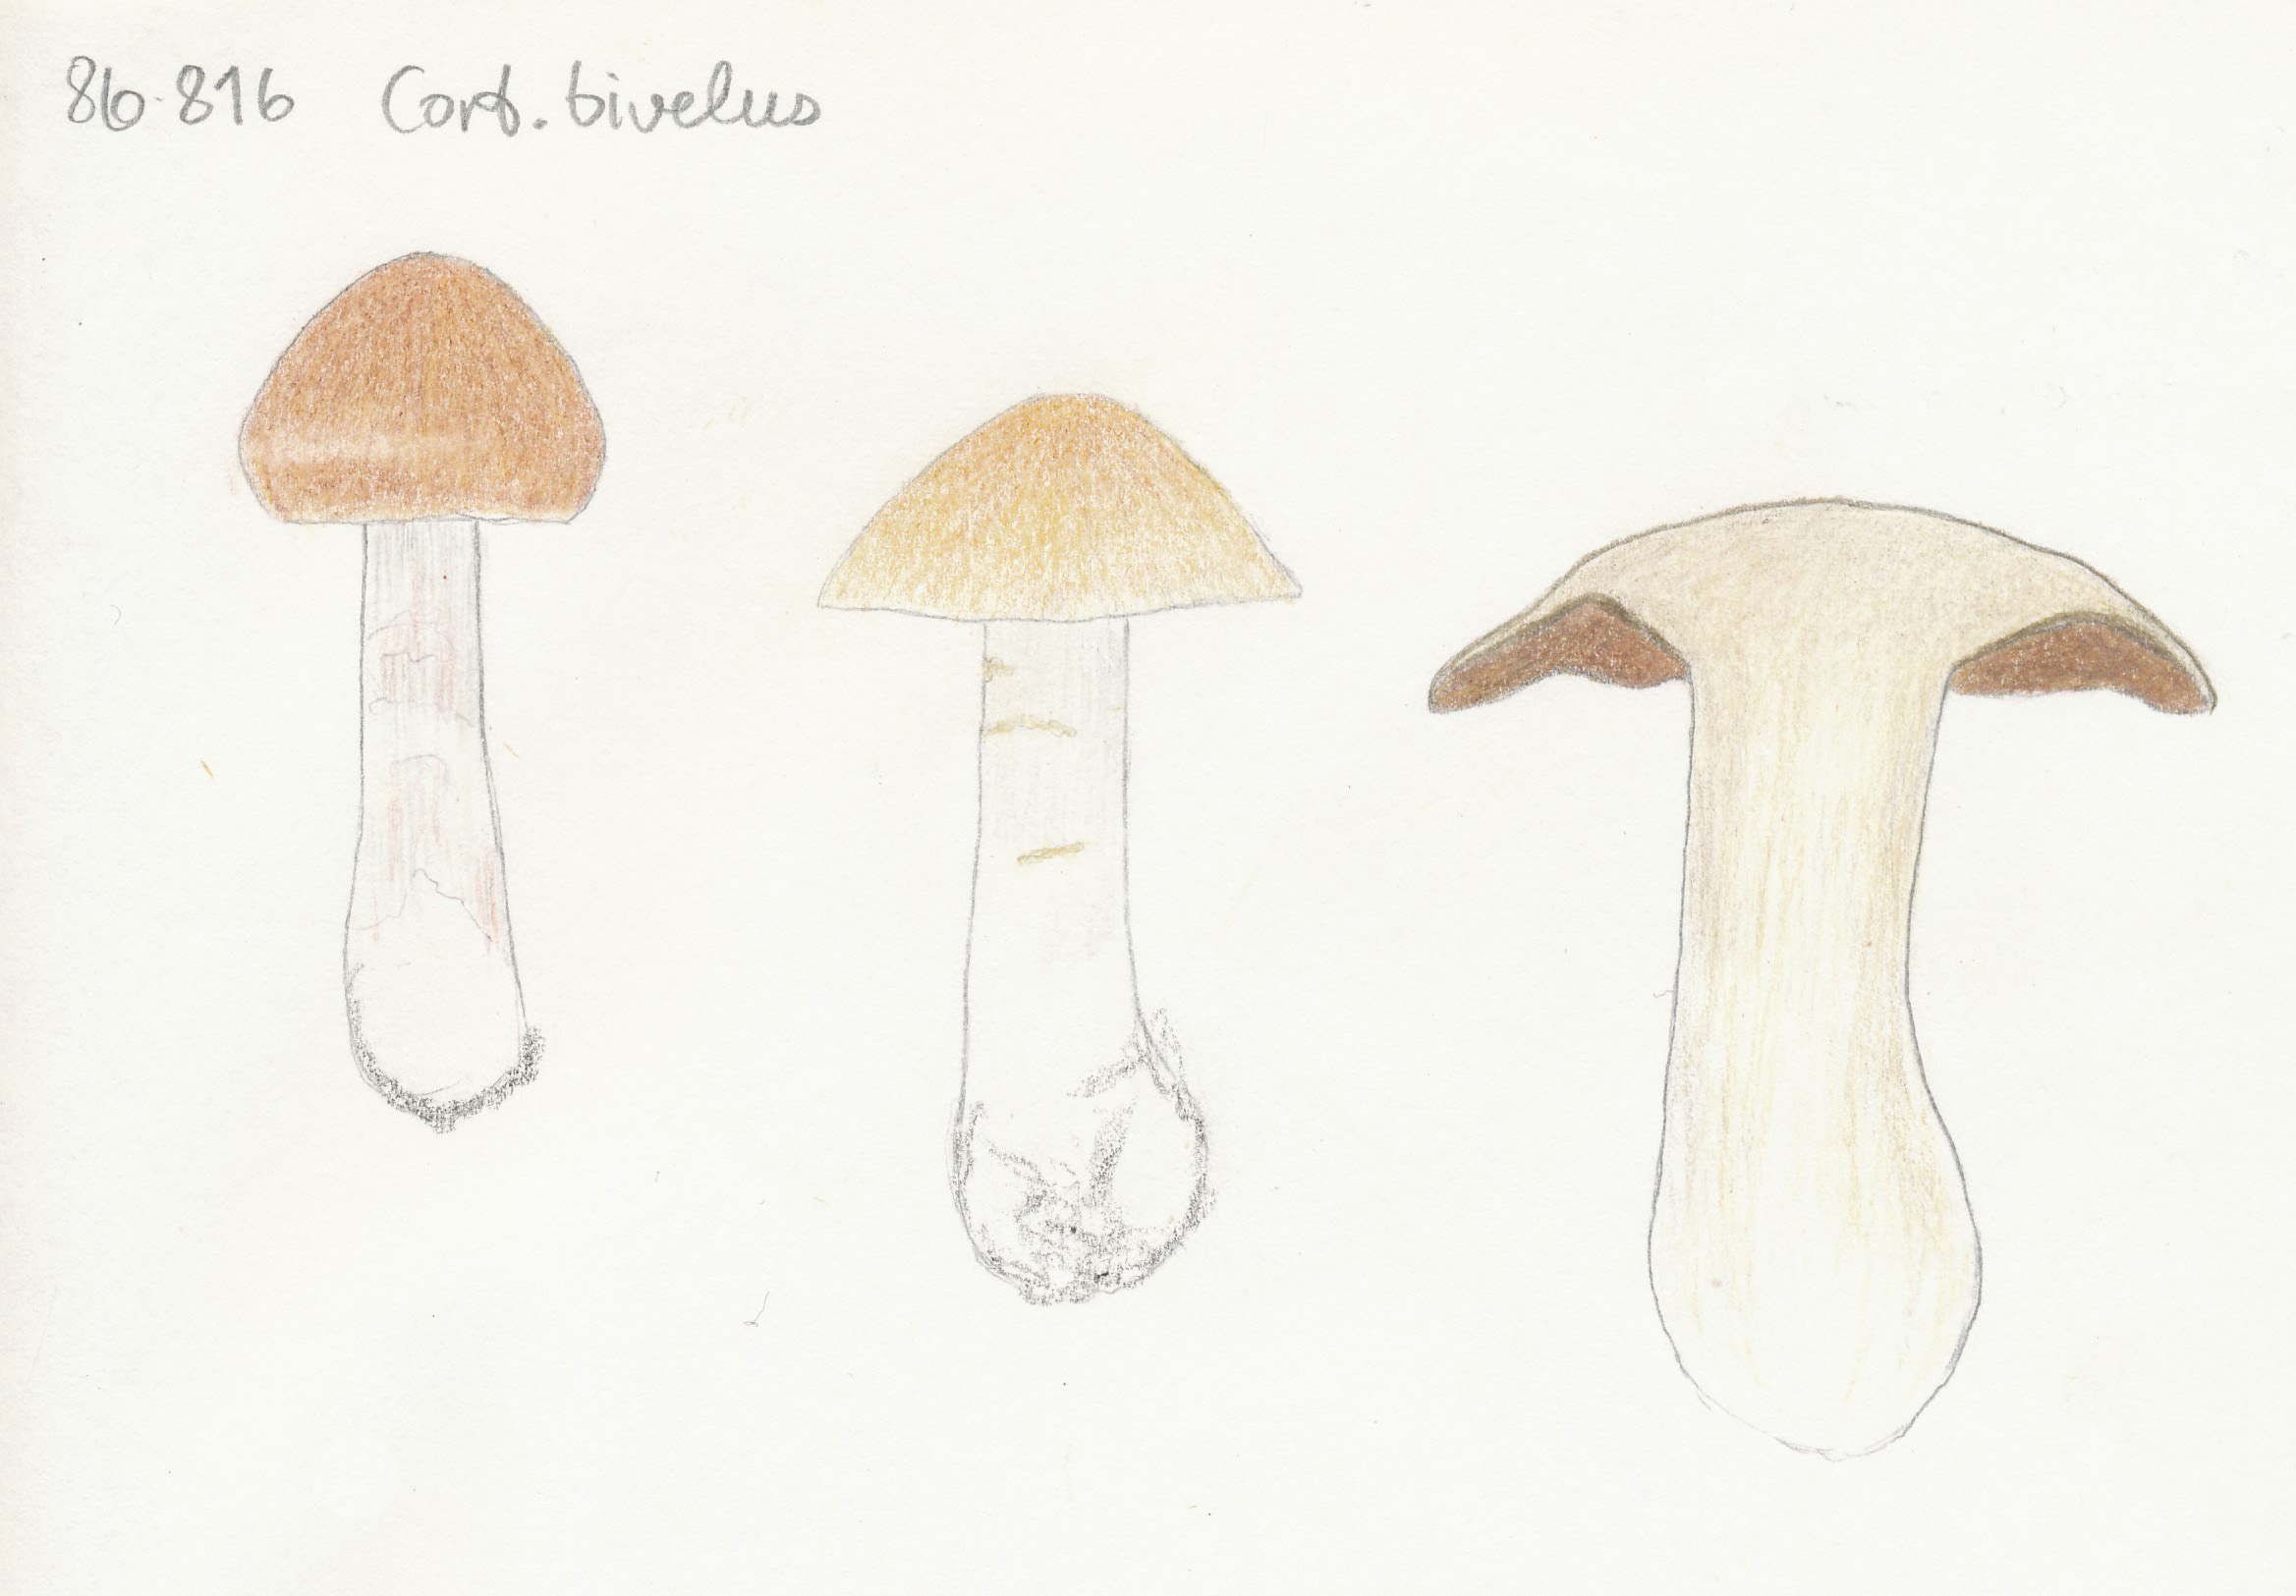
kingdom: Fungi
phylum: Basidiomycota
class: Agaricomycetes
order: Agaricales
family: Cortinariaceae
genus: Cortinarius
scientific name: Cortinarius bivelus
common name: orangebrun slørhat
